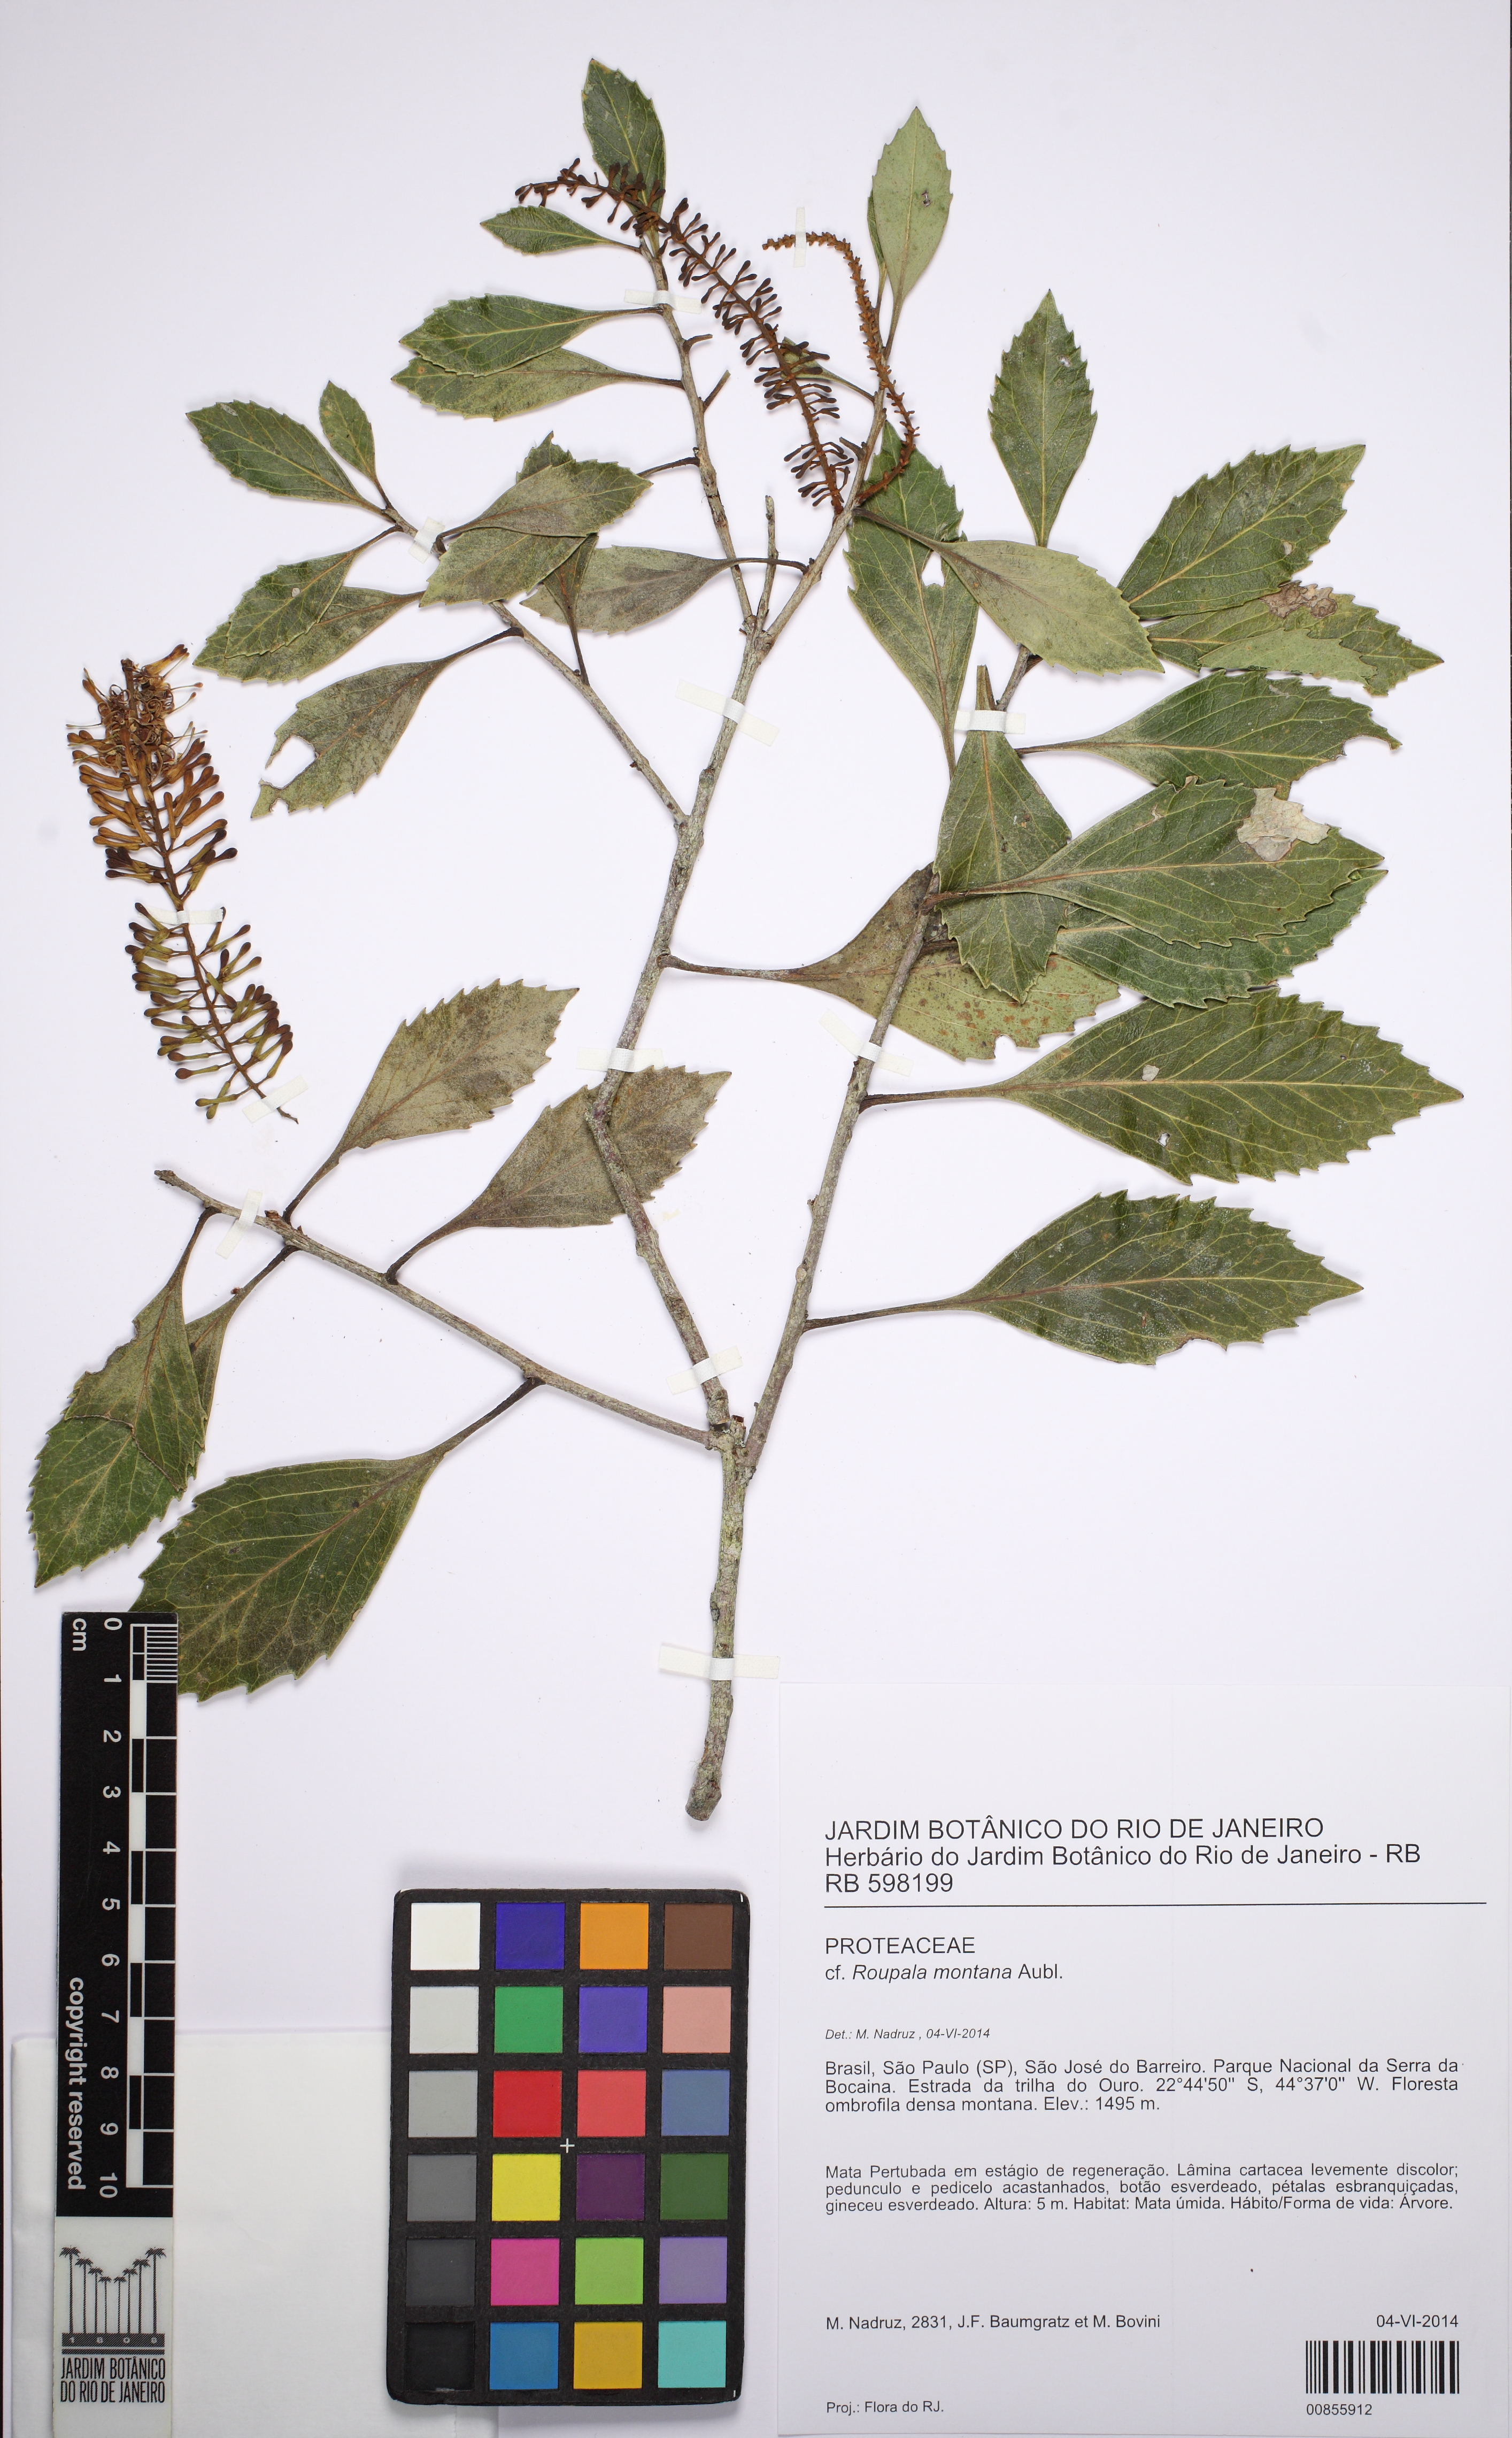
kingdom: Plantae
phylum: Tracheophyta
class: Magnoliopsida
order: Proteales
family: Proteaceae
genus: Roupala
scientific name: Roupala montana
